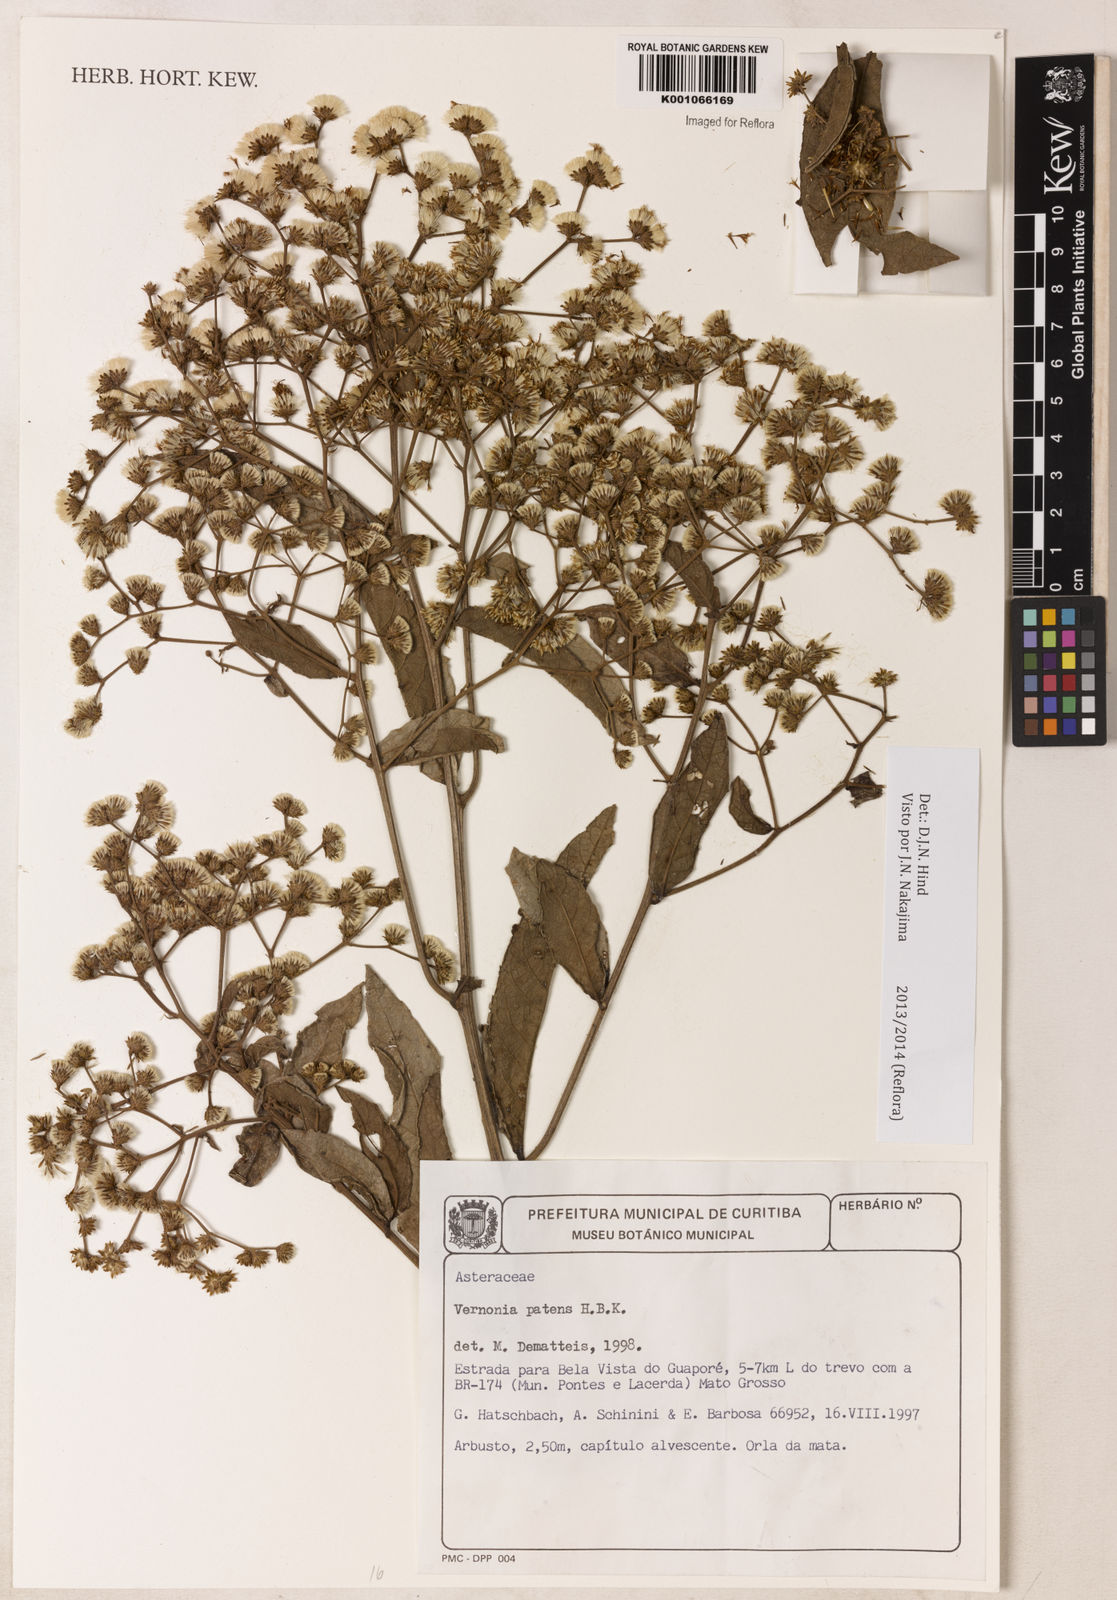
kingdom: Plantae
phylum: Tracheophyta
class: Magnoliopsida
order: Asterales
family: Asteraceae
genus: Vernonanthura
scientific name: Vernonanthura cymosa
